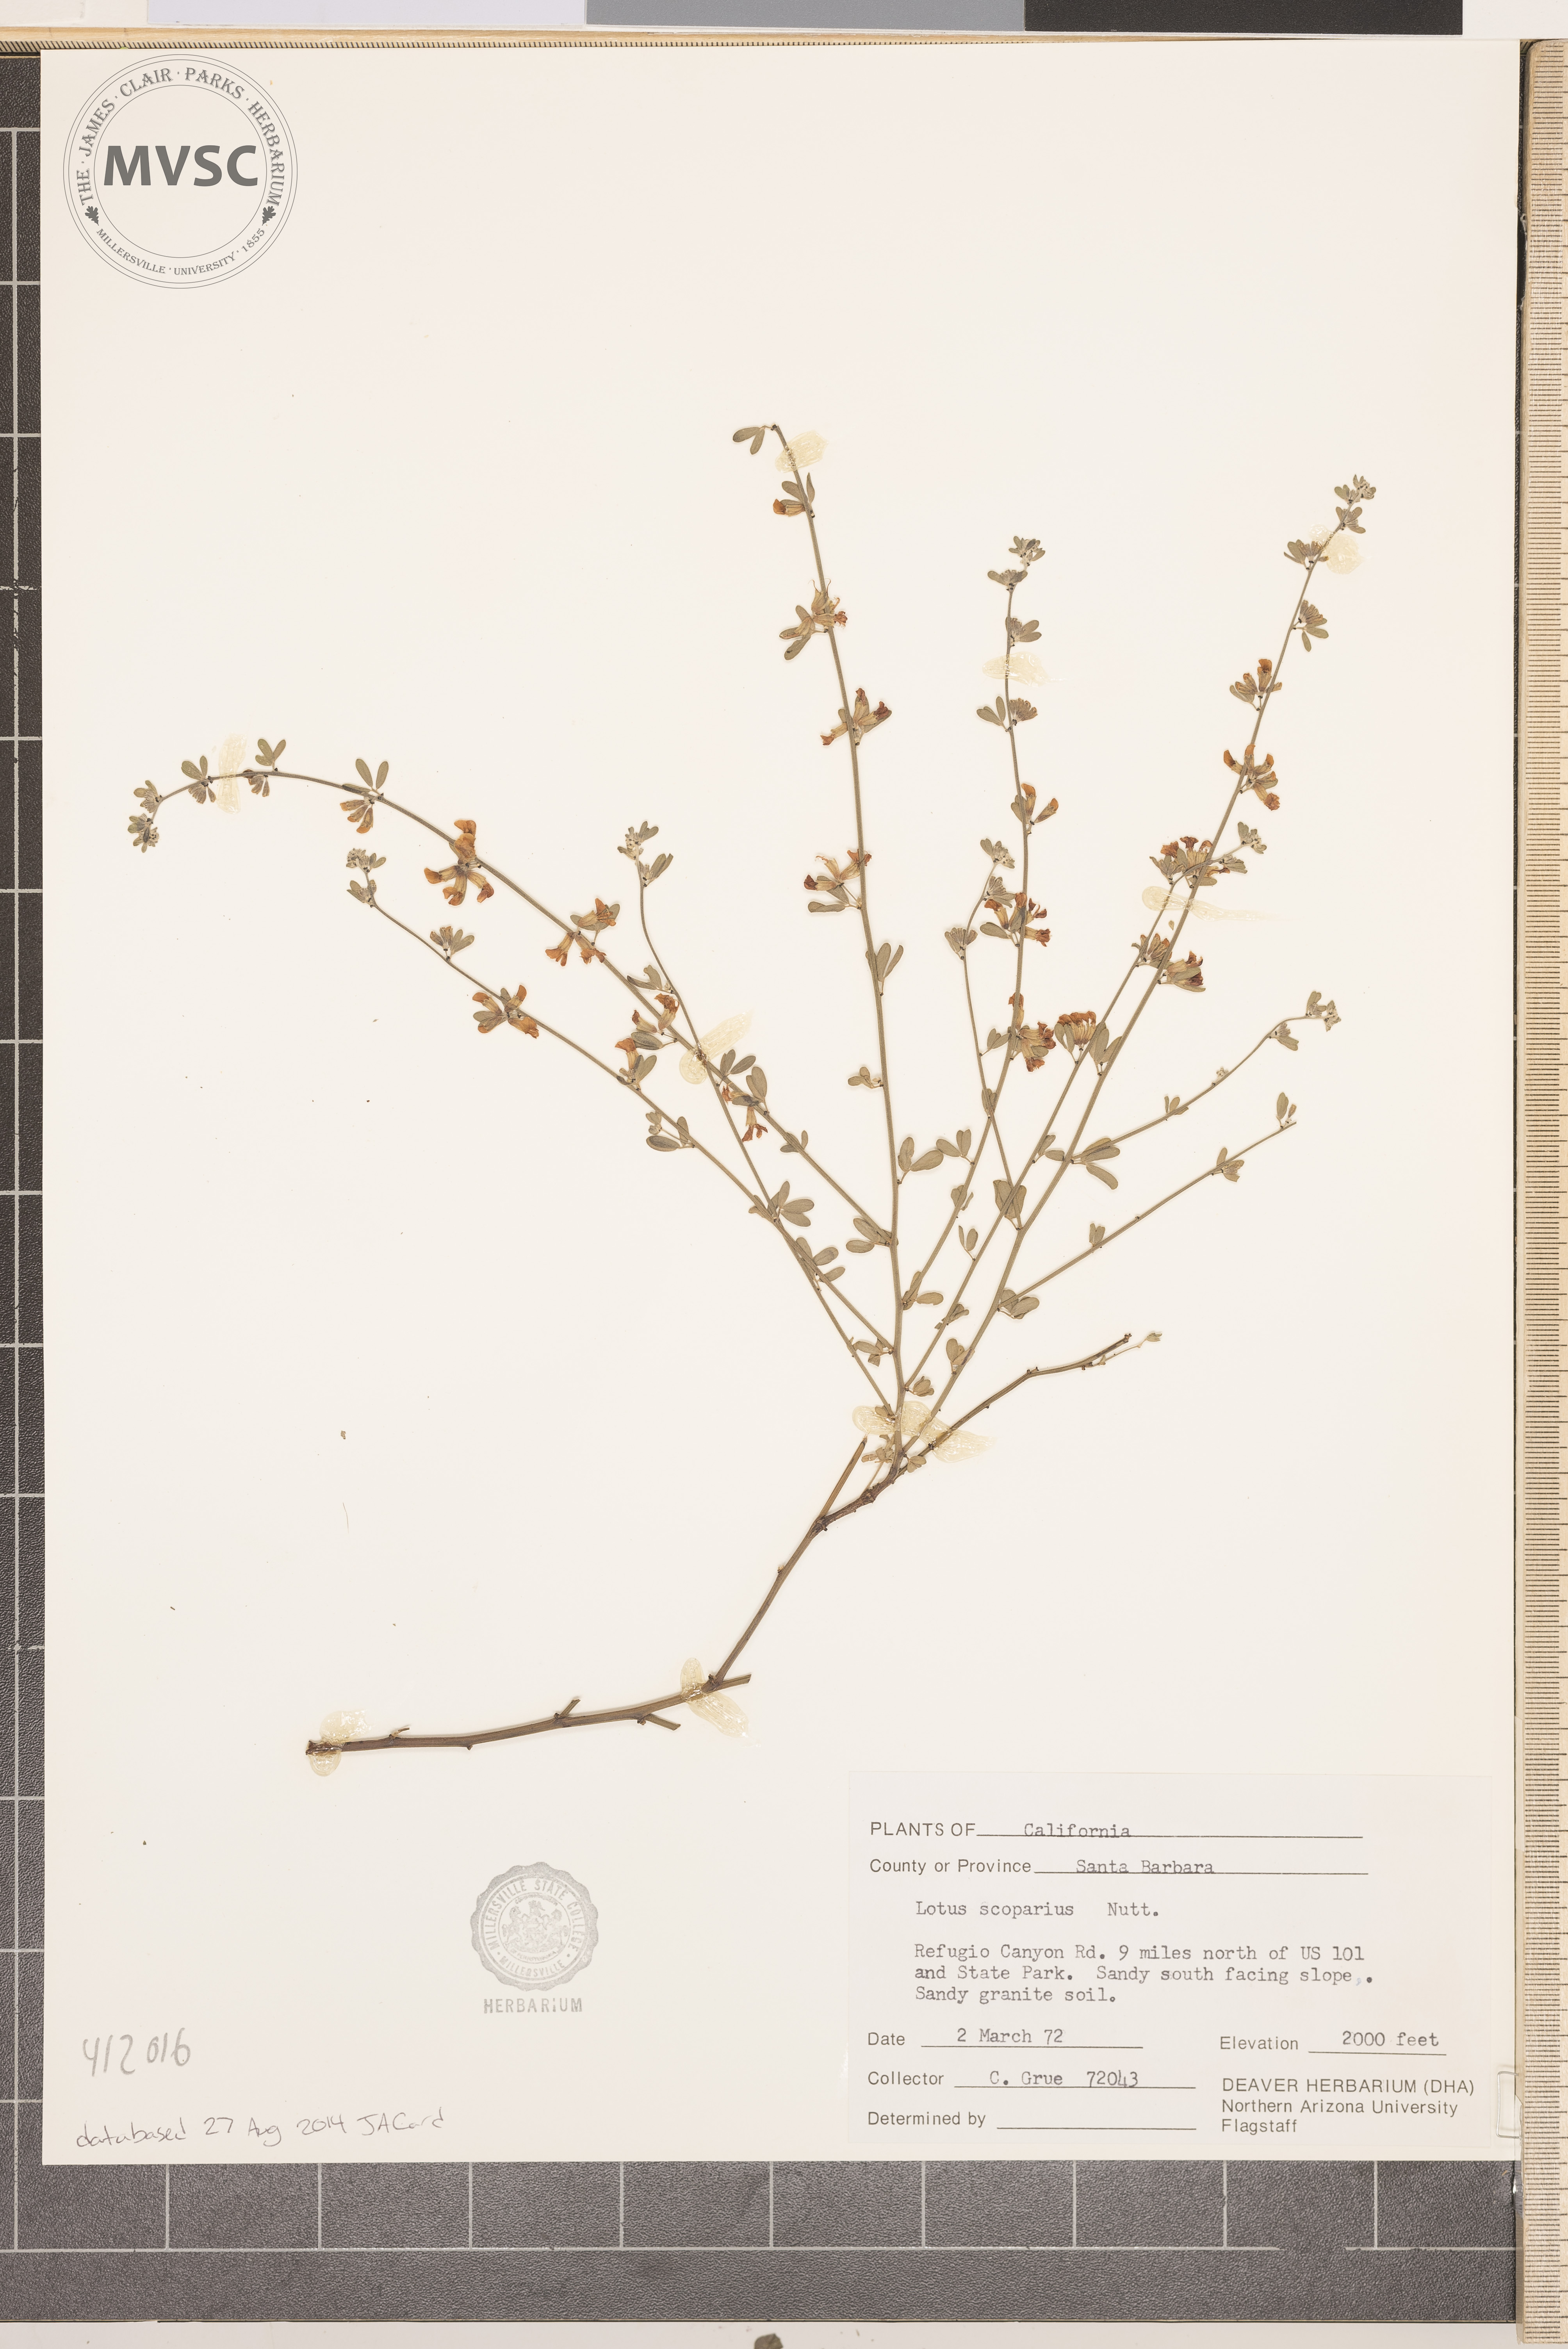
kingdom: Plantae
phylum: Tracheophyta
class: Magnoliopsida
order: Fabales
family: Fabaceae
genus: Acmispon
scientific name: Acmispon glaber
